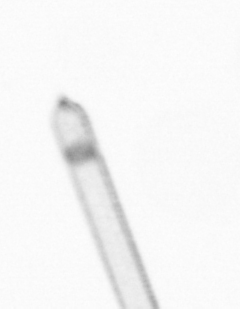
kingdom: Chromista
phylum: Ochrophyta
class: Bacillariophyceae
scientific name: Bacillariophyceae
